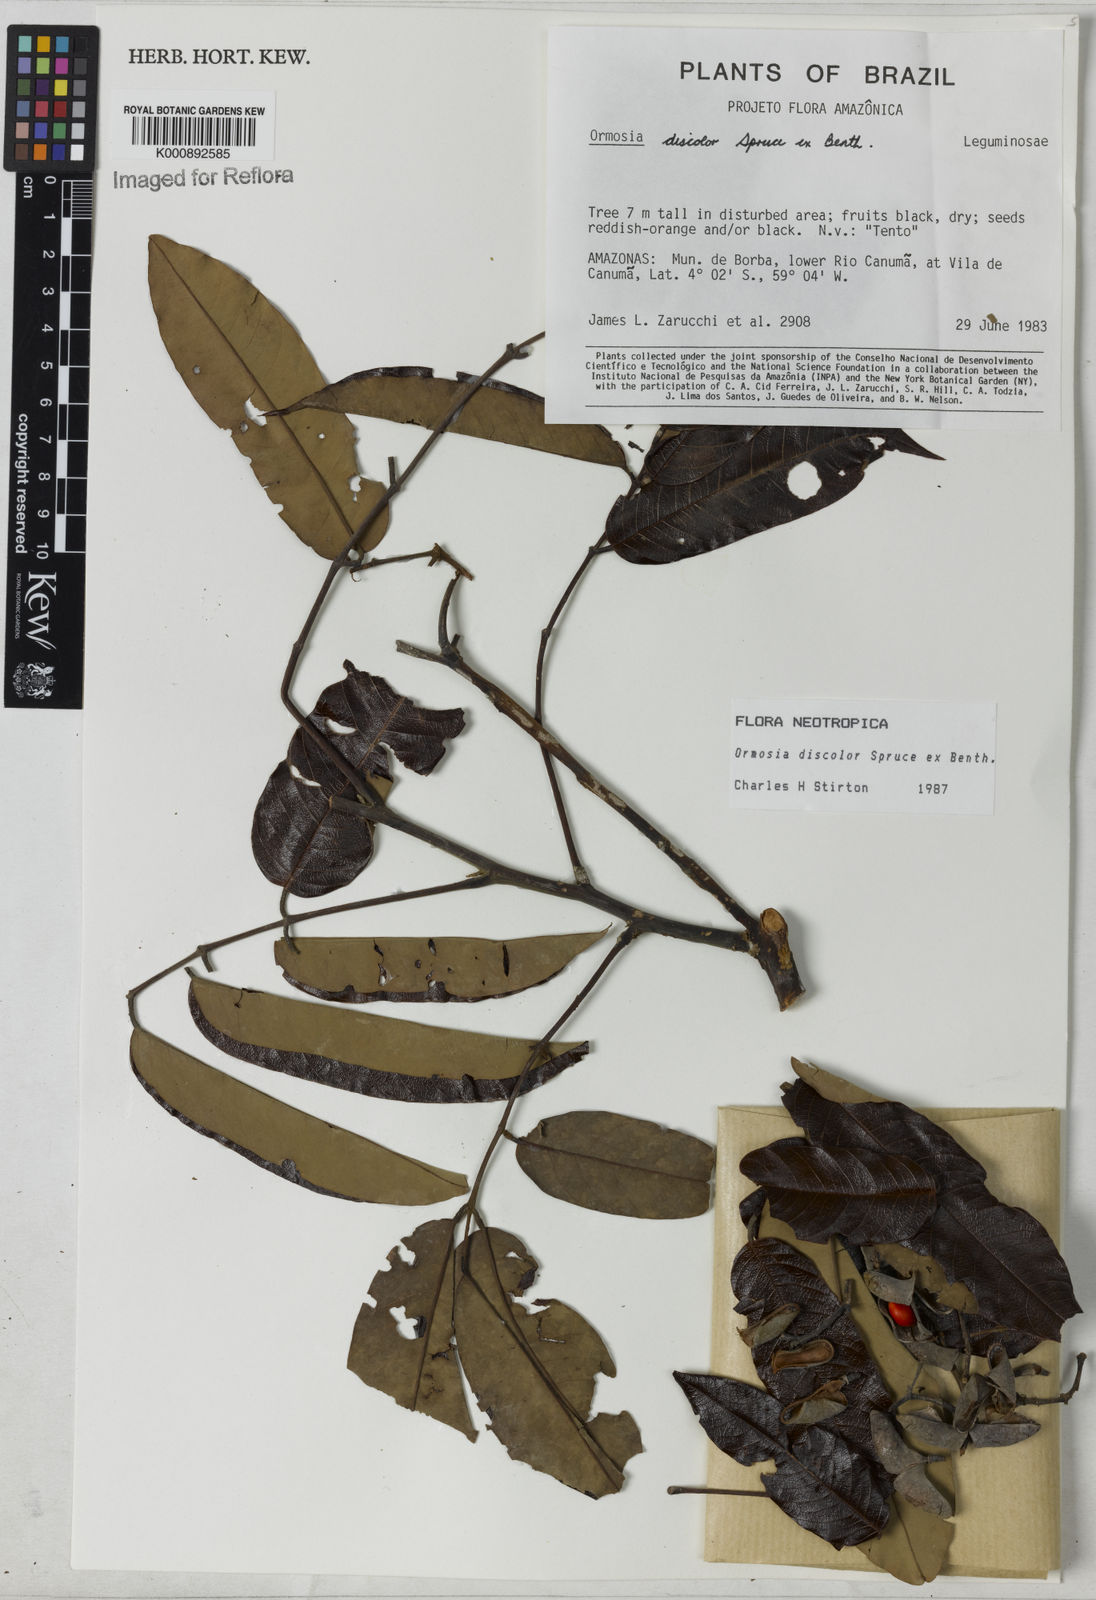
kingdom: Plantae
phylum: Tracheophyta
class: Magnoliopsida
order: Fabales
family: Fabaceae
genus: Ormosia
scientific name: Ormosia discolor
